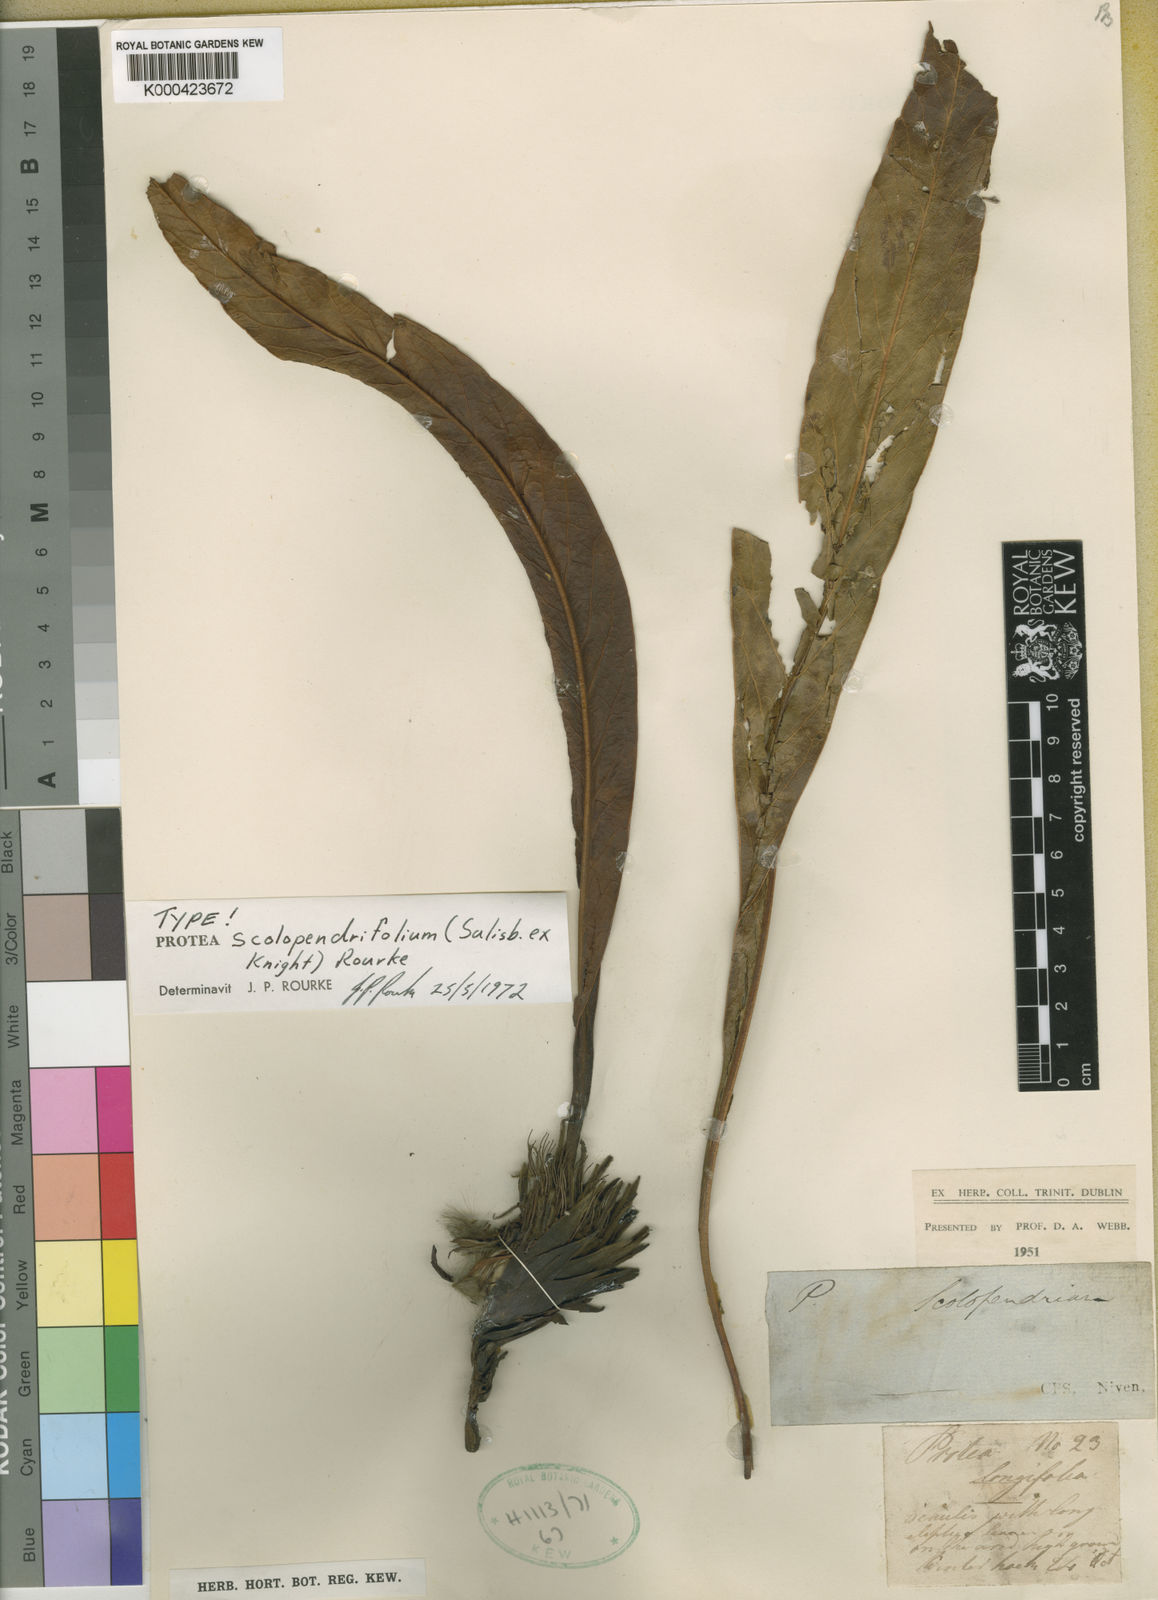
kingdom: Plantae
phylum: Tracheophyta
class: Magnoliopsida
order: Proteales
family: Proteaceae
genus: Protea
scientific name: Protea scolopendriifolia
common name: Harts-tongue-fern sugarbush
